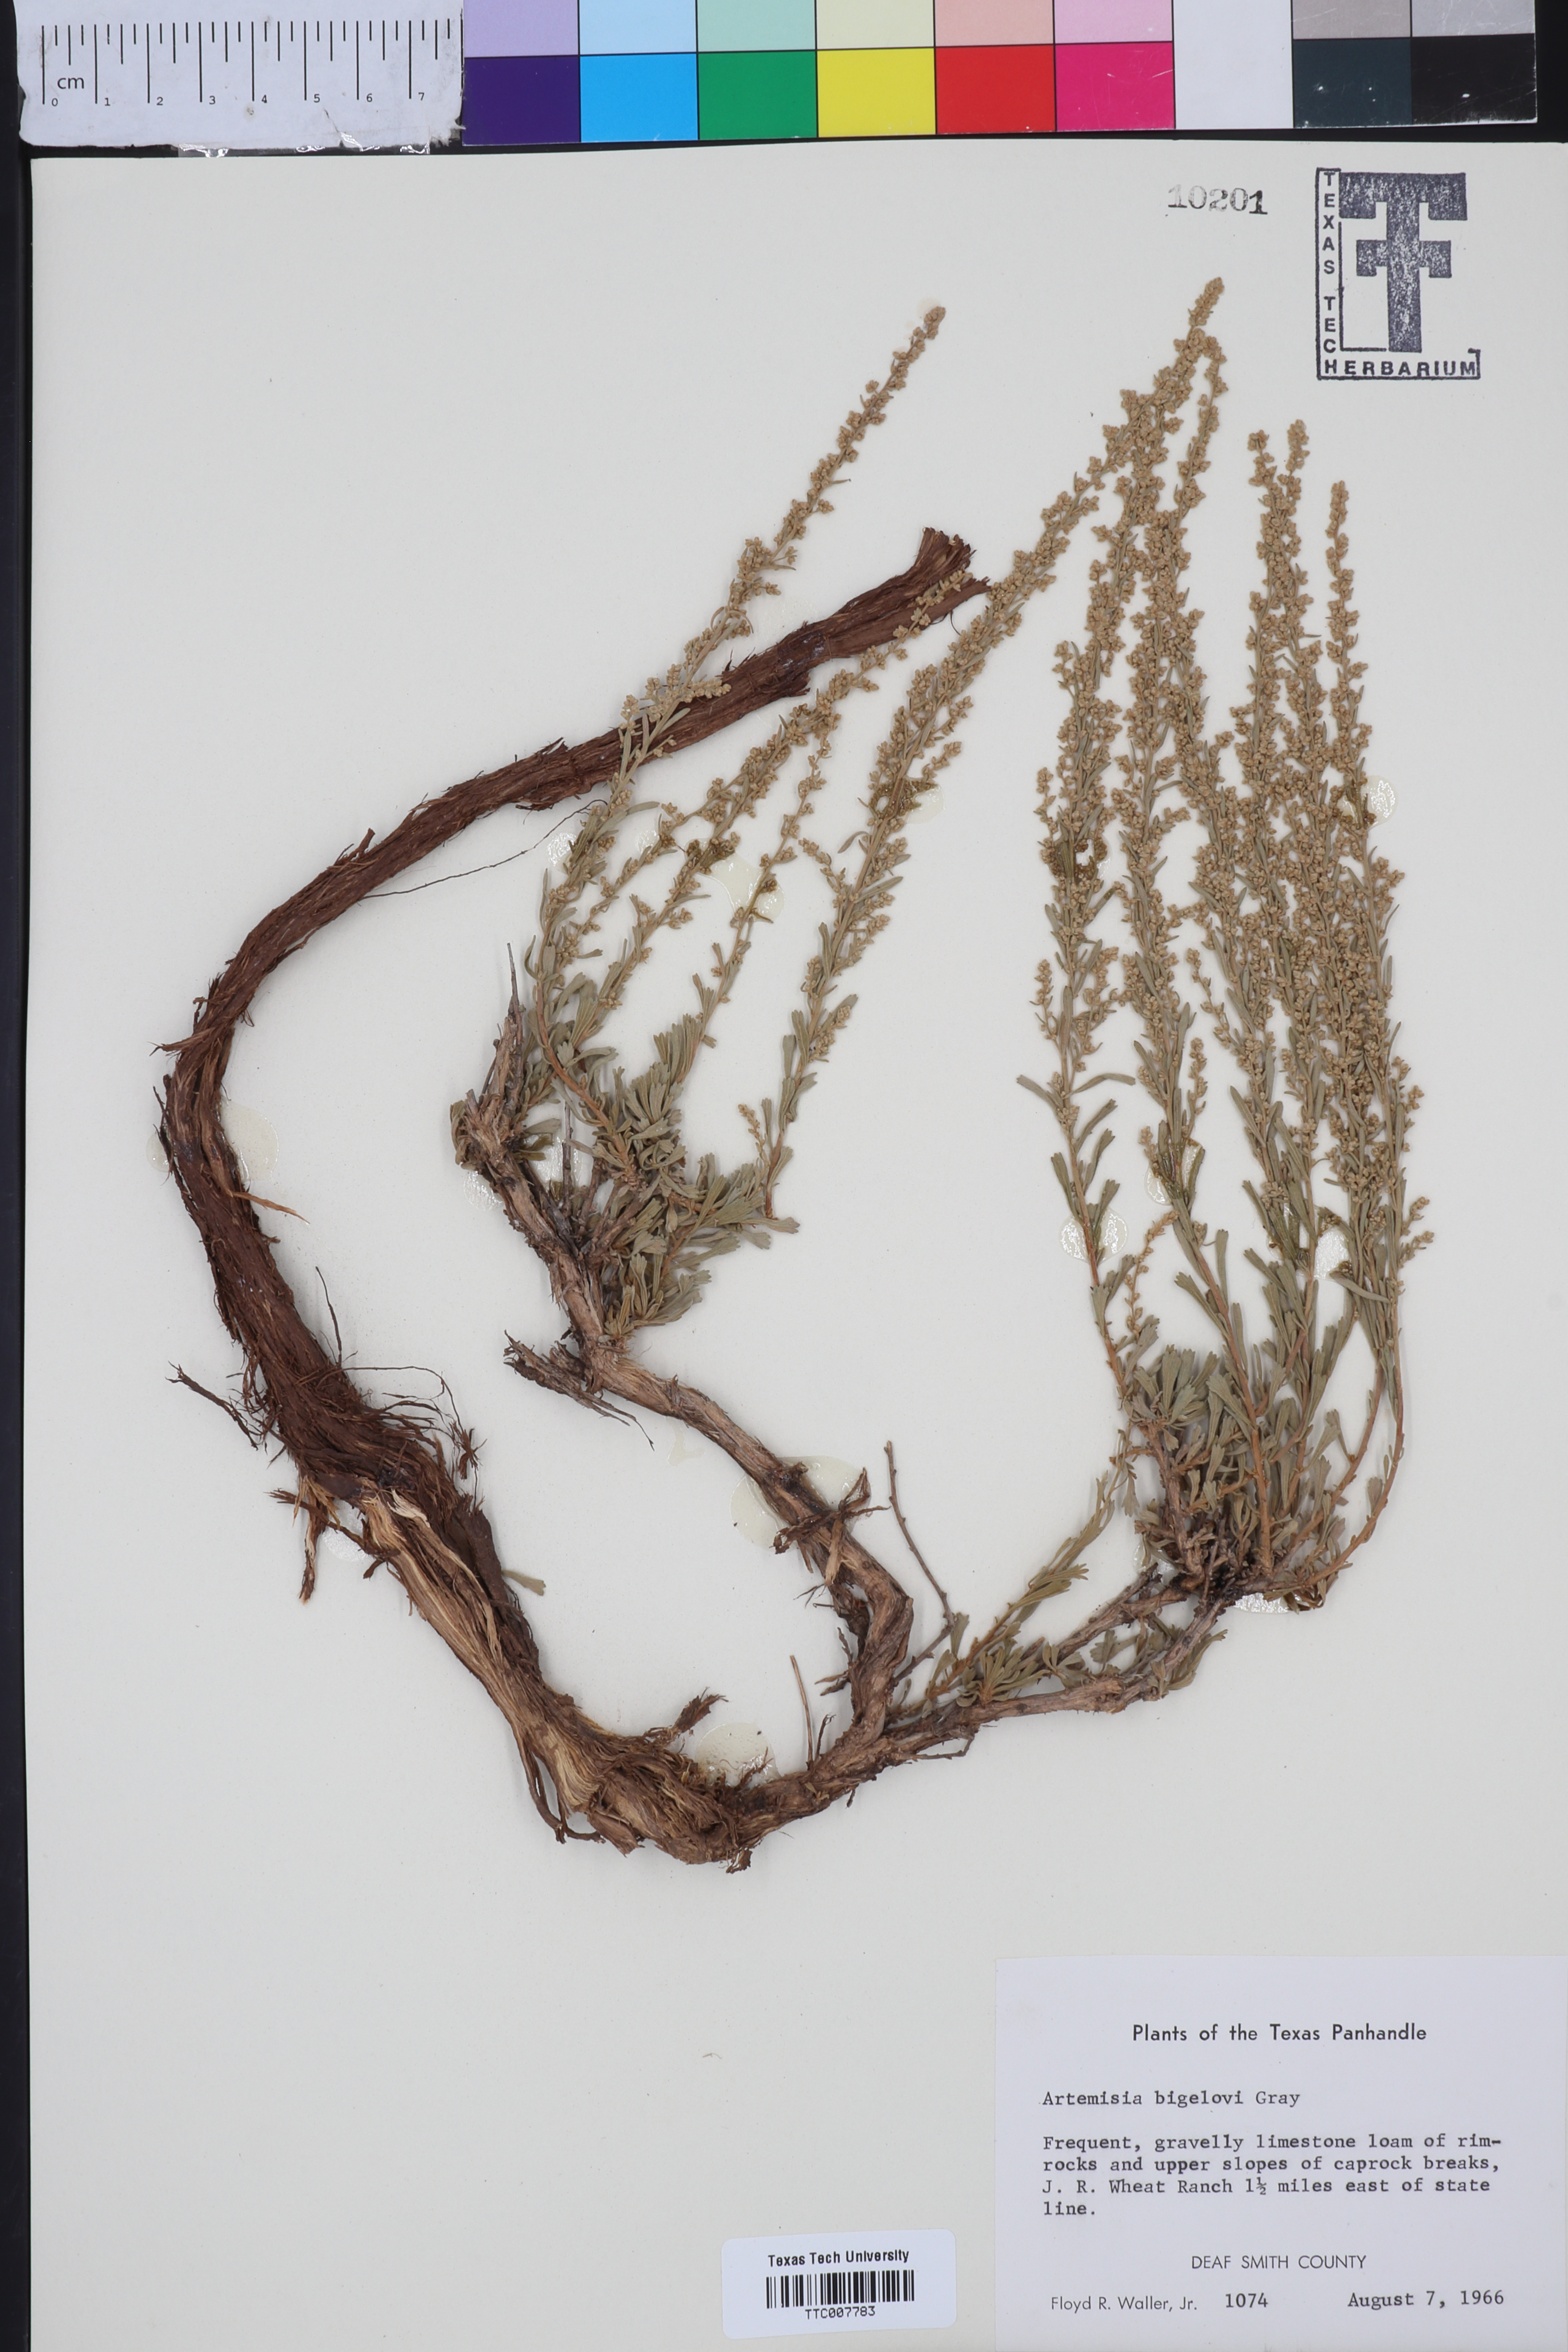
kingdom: Plantae
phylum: Tracheophyta
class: Magnoliopsida
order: Asterales
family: Asteraceae
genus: Artemisia
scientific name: Artemisia bigelovii
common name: Bigelow sagebrush
